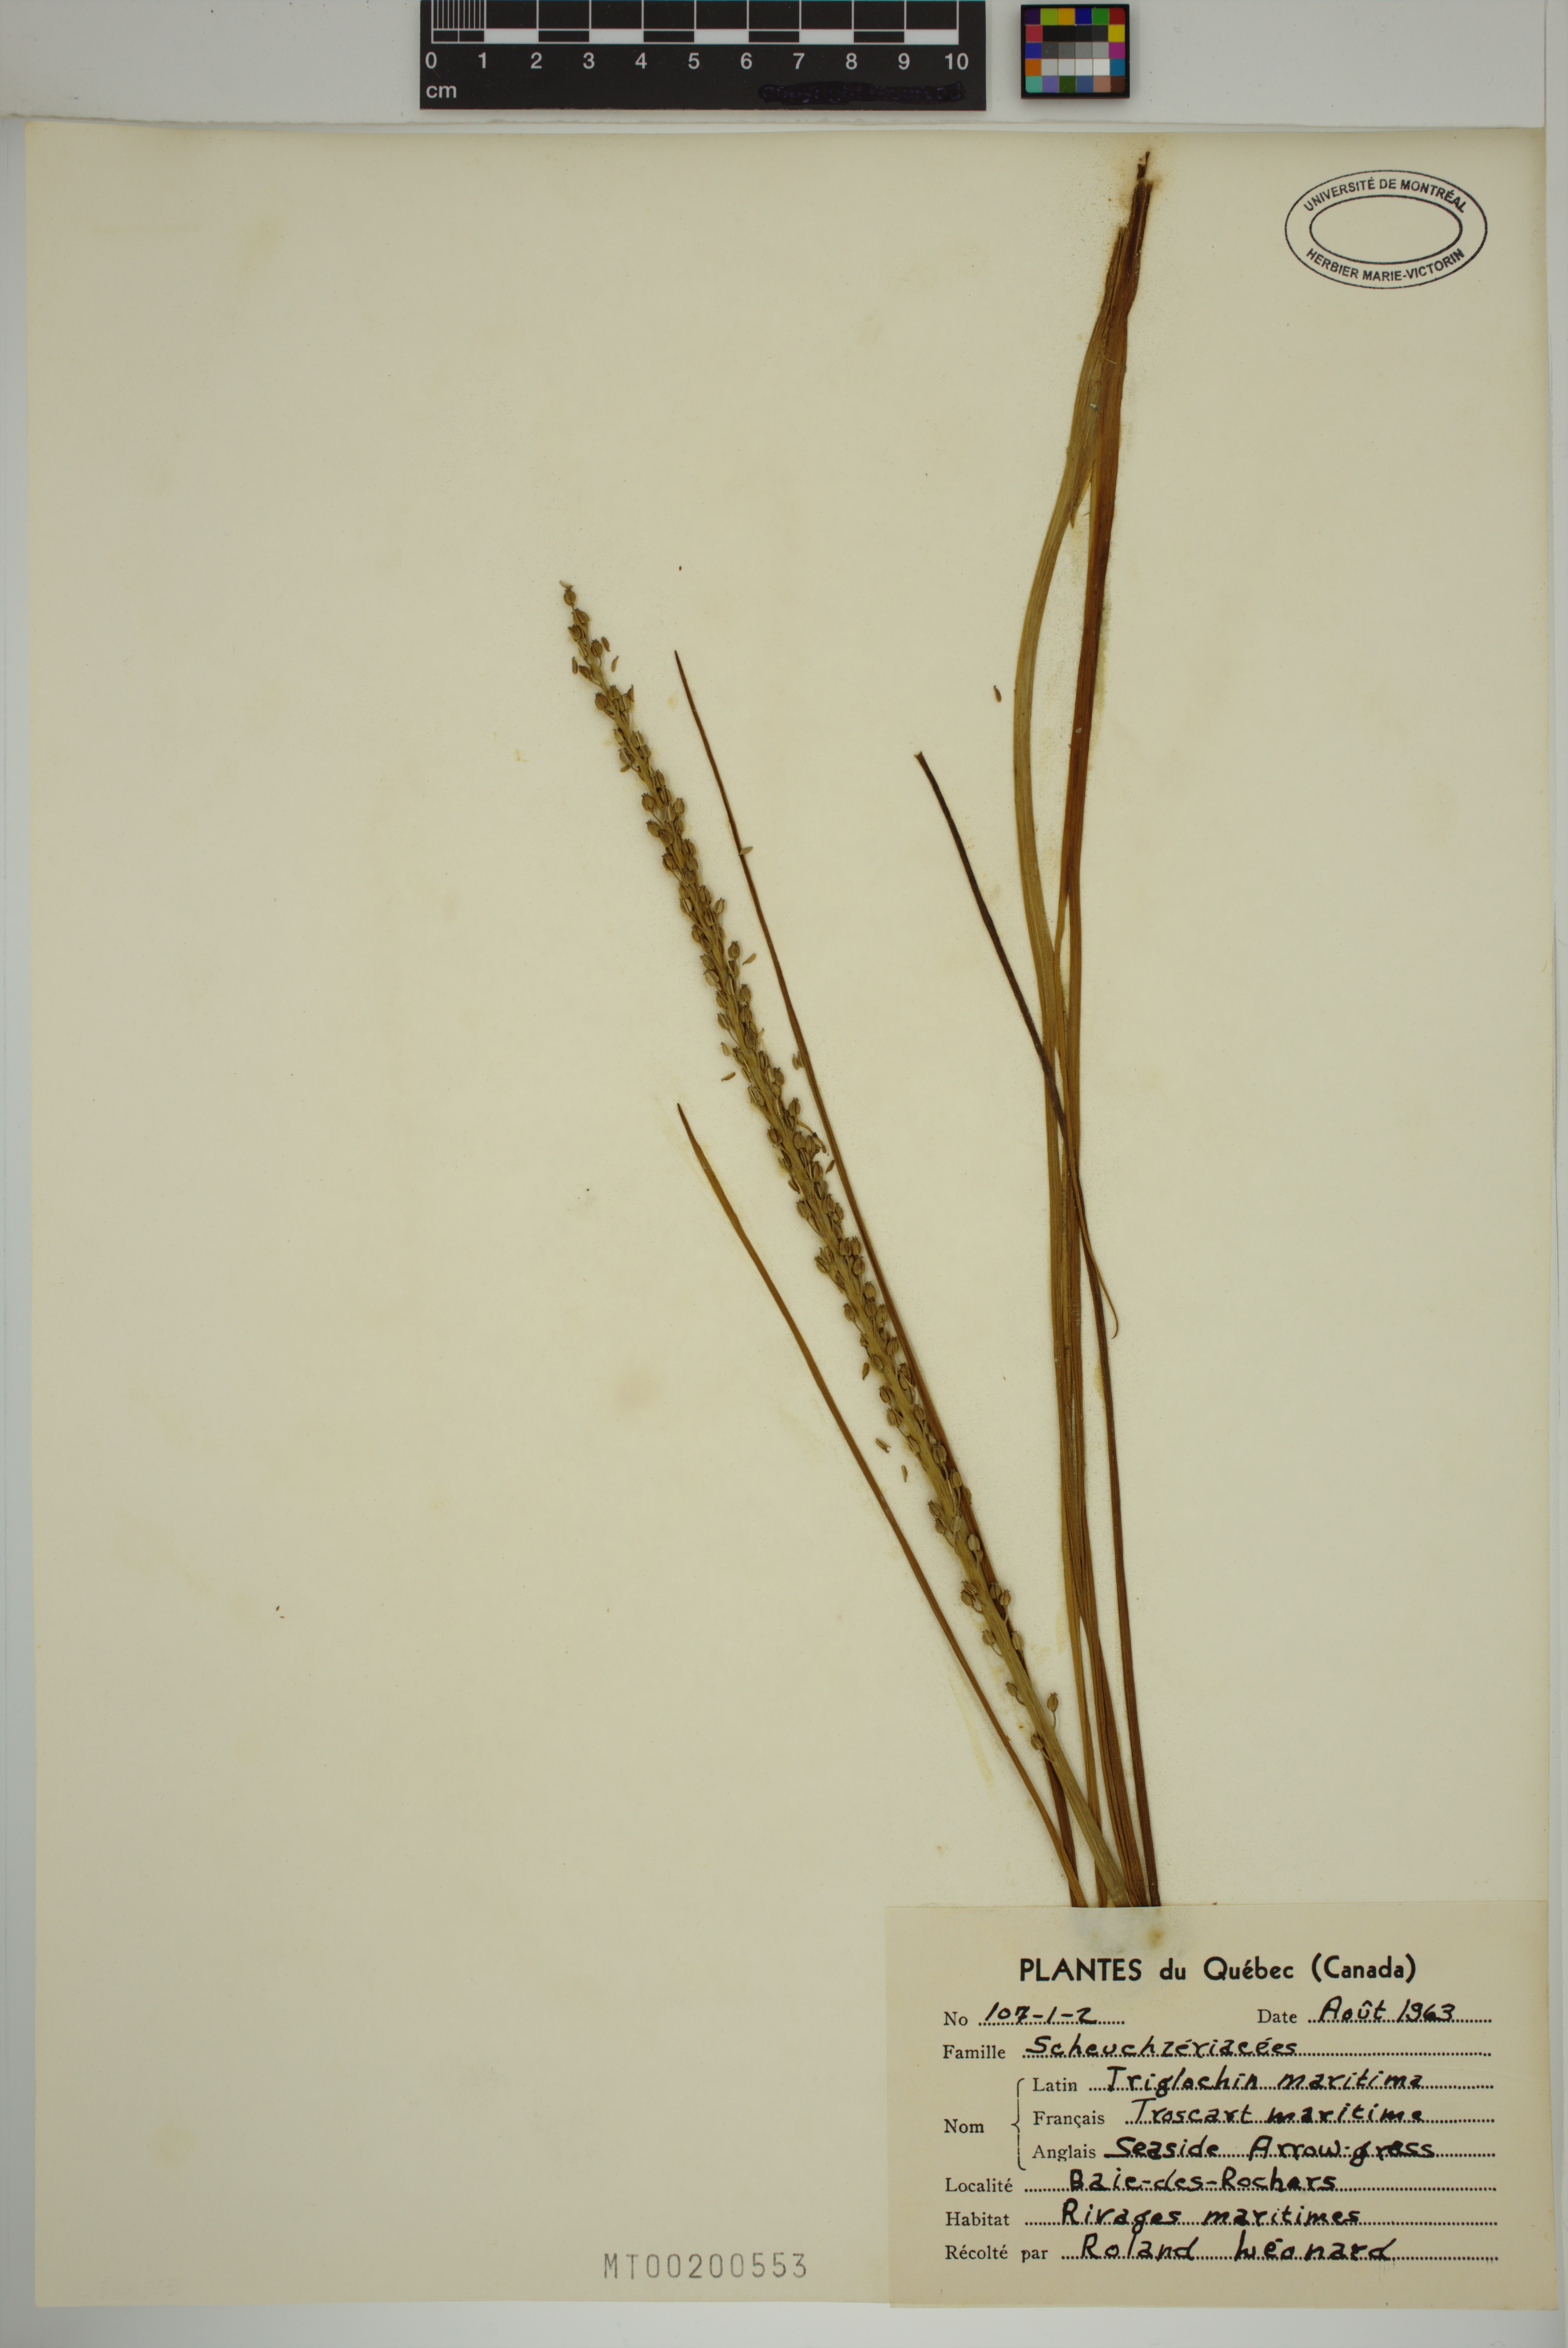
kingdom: Plantae
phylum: Tracheophyta
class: Liliopsida
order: Alismatales
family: Juncaginaceae
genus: Triglochin
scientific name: Triglochin maritima
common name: Sea arrowgrass
